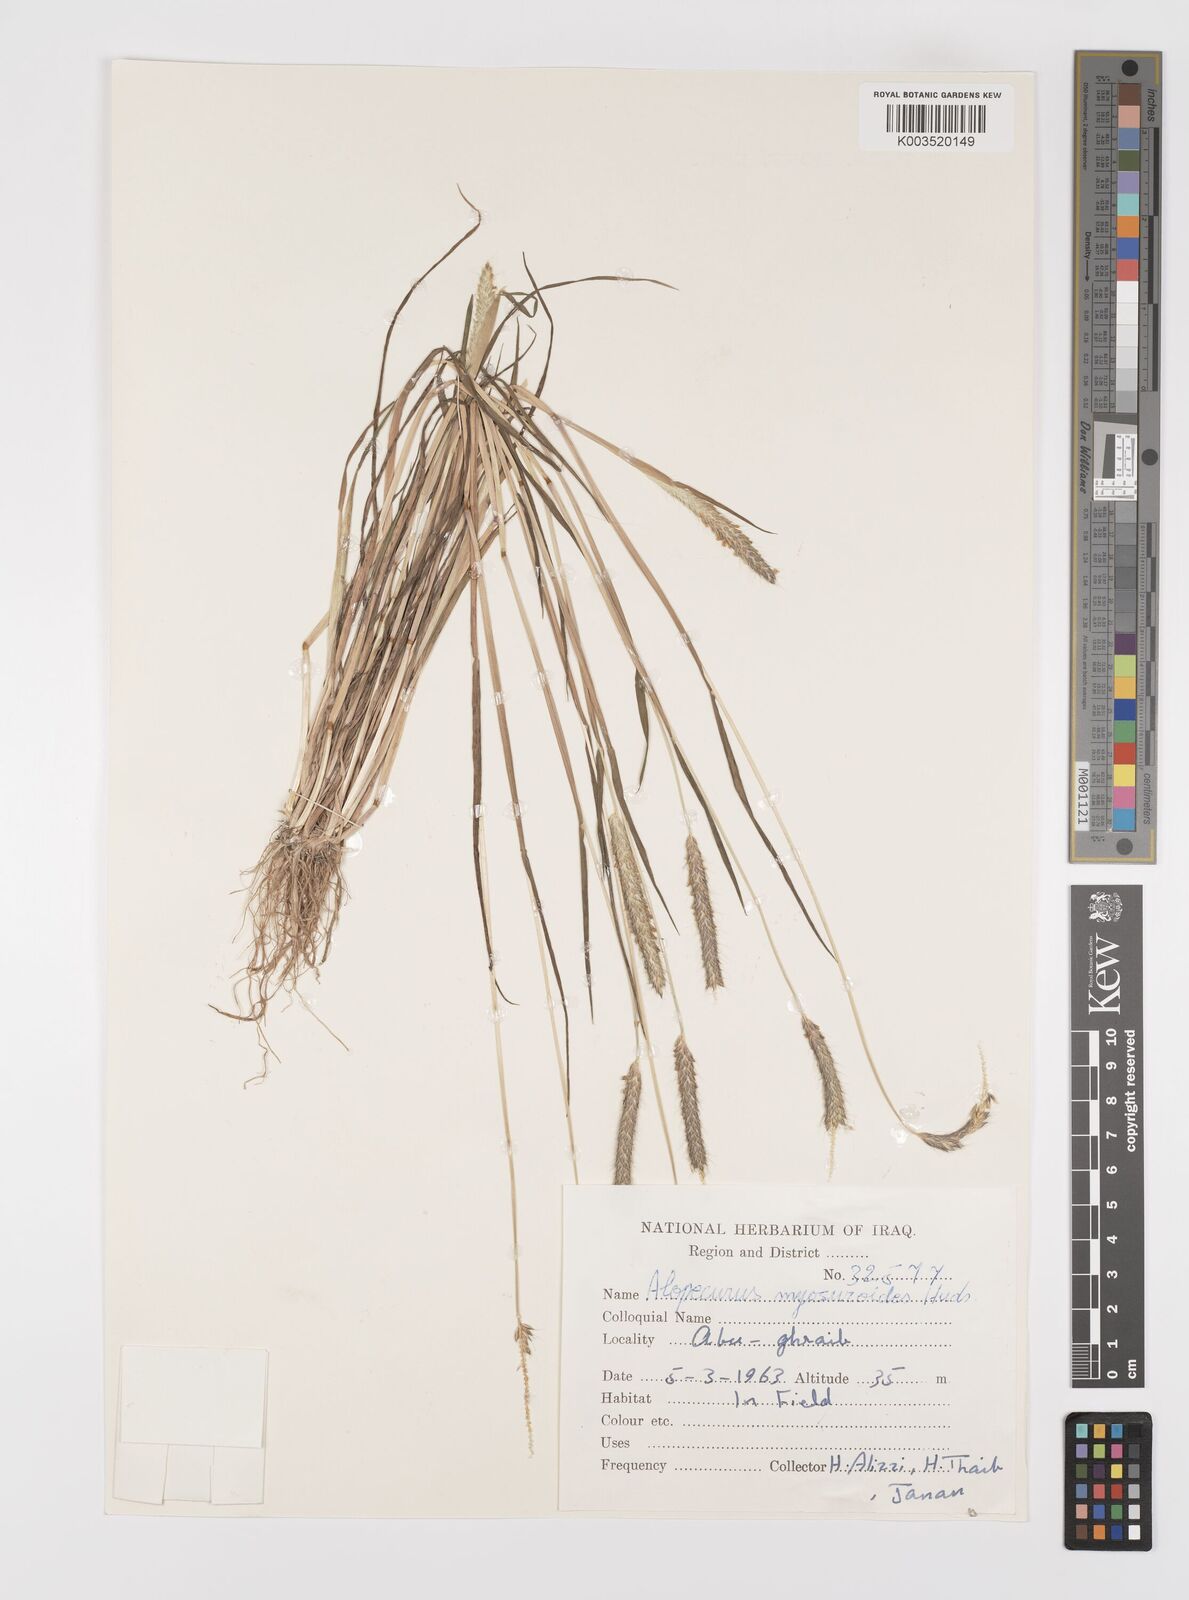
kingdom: Plantae
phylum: Tracheophyta
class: Liliopsida
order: Poales
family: Poaceae
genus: Alopecurus
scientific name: Alopecurus myosuroides
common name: Black-grass
